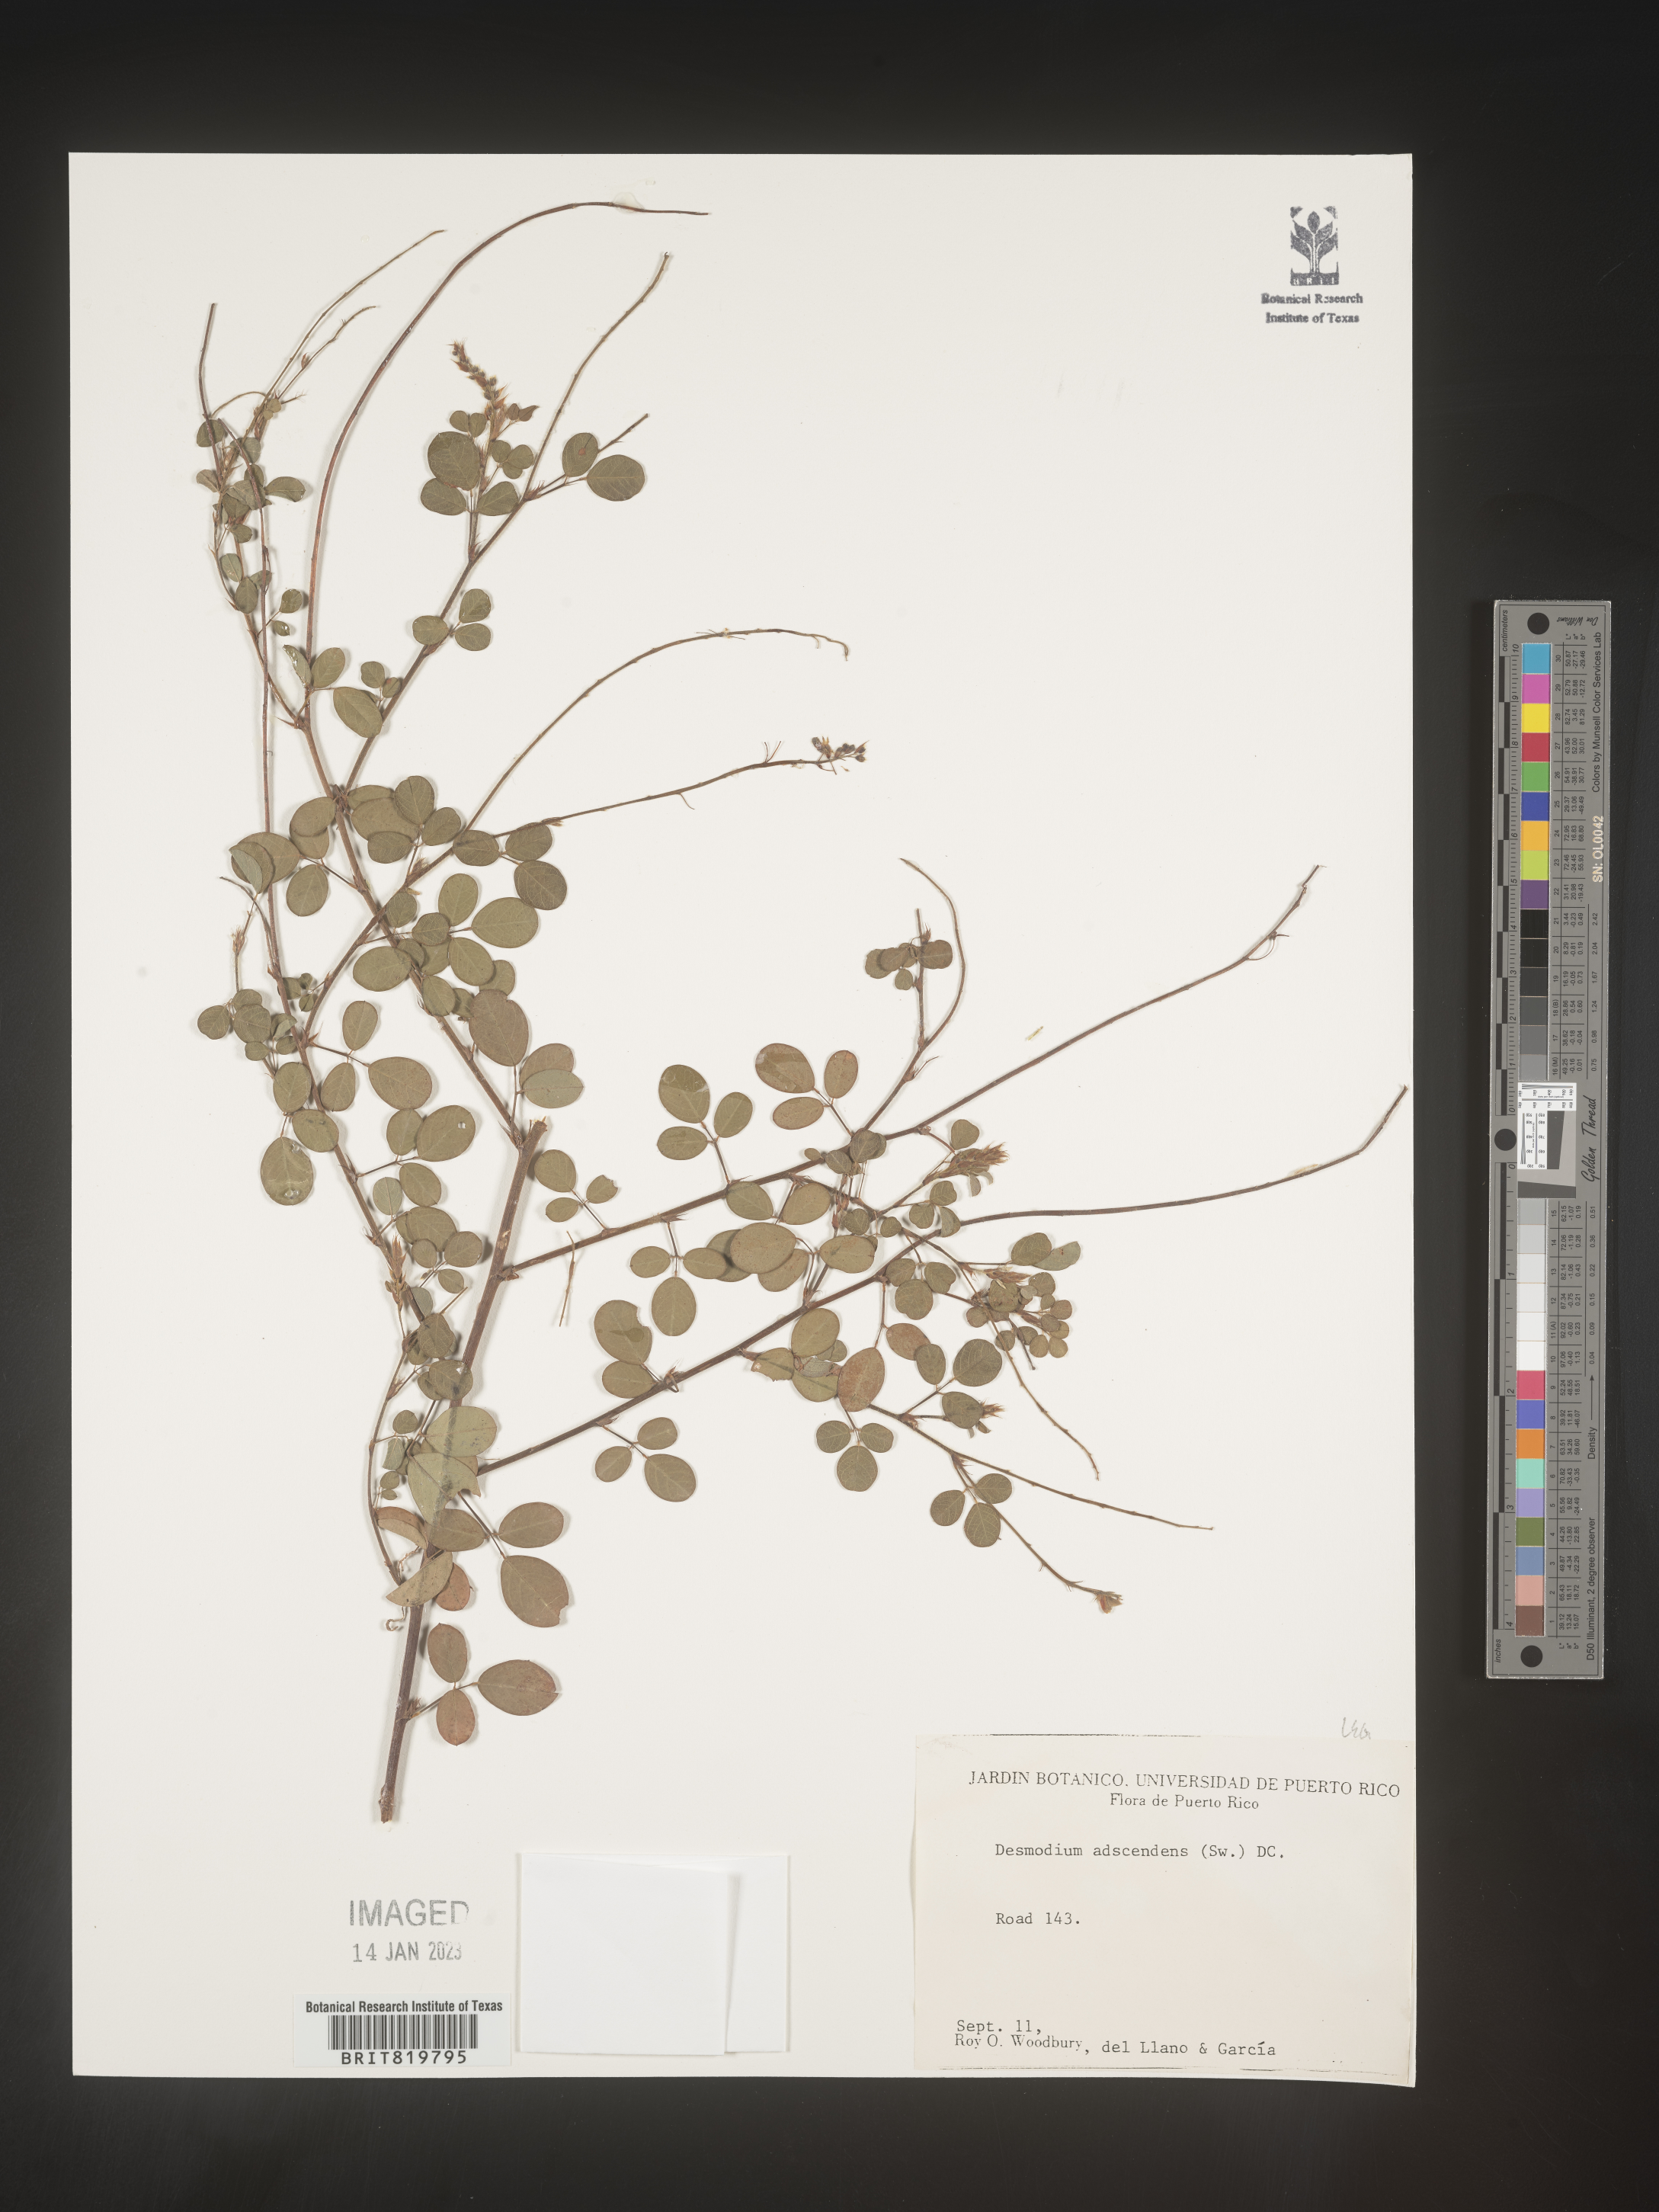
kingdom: Plantae
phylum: Tracheophyta
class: Magnoliopsida
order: Fabales
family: Fabaceae
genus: Desmodium
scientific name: Desmodium
